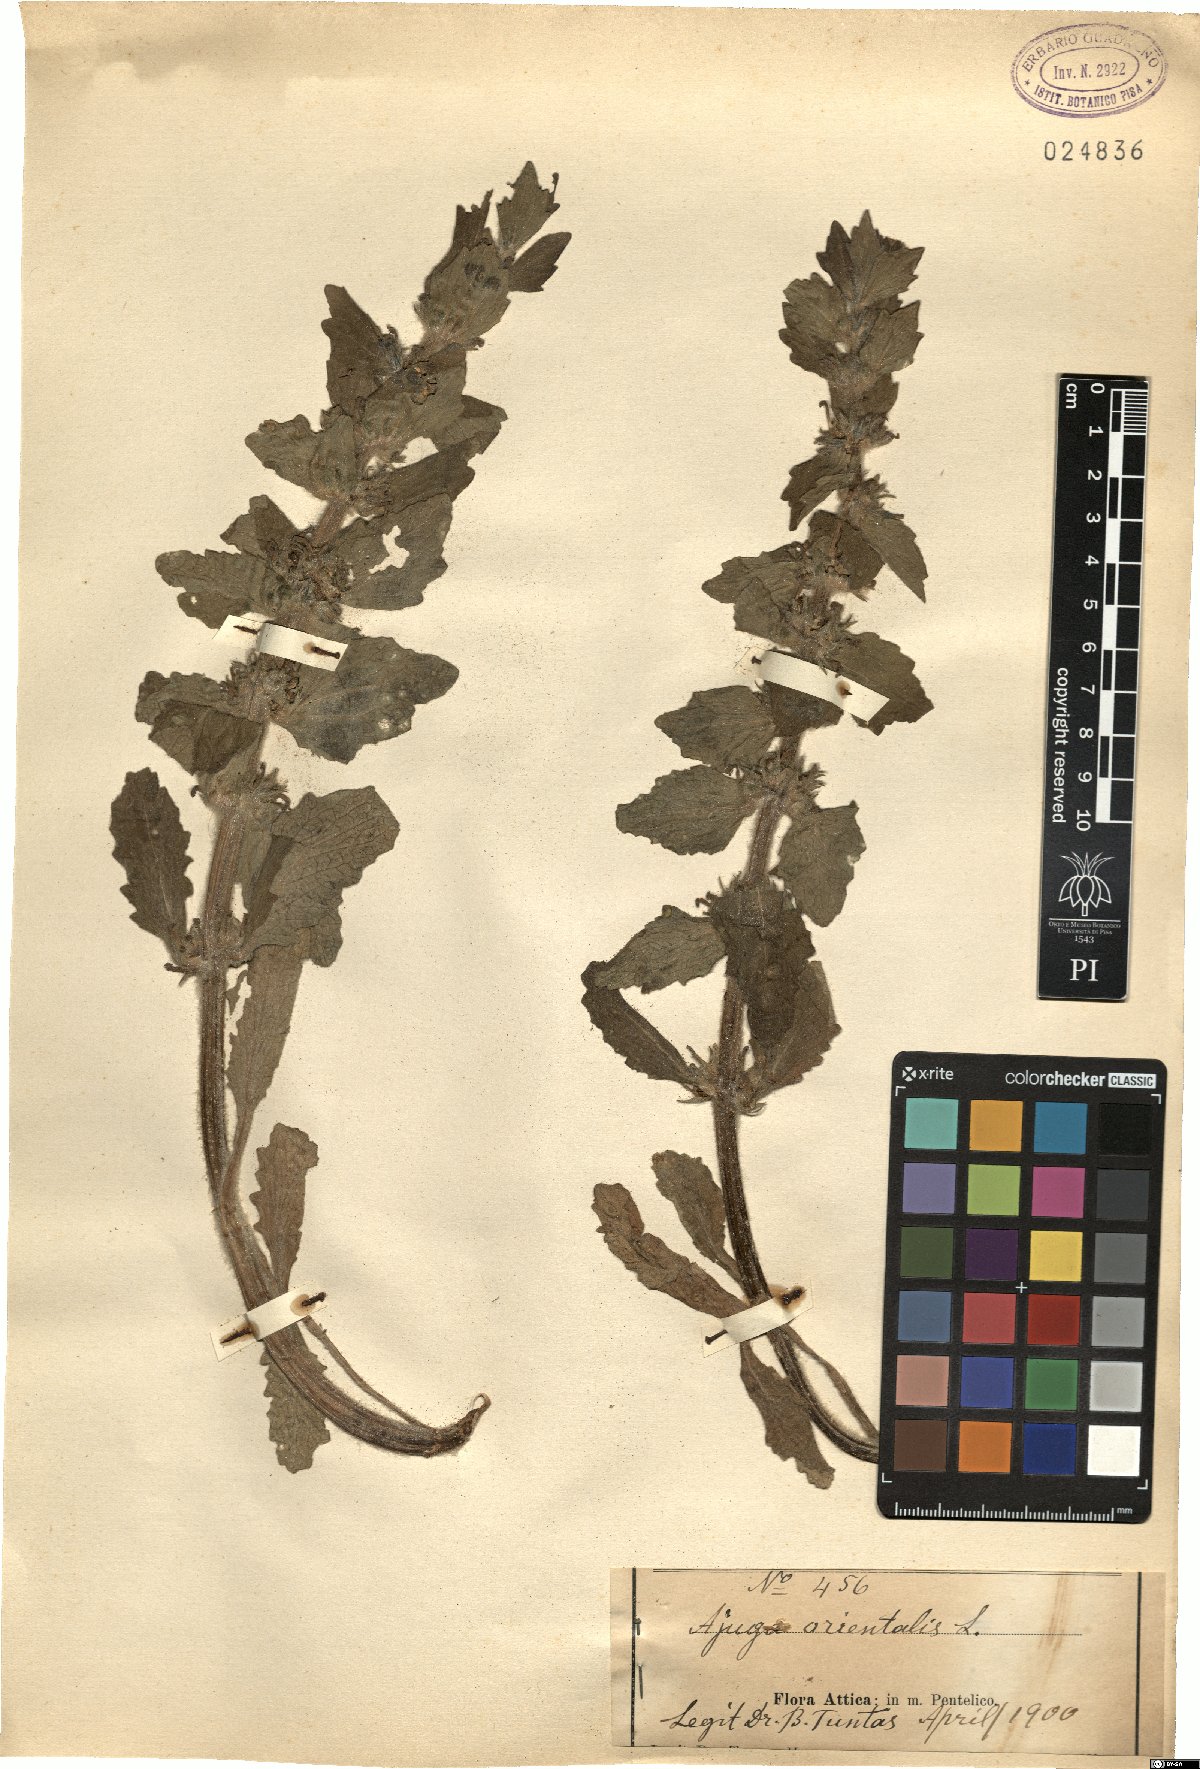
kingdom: Plantae
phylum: Tracheophyta
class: Magnoliopsida
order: Lamiales
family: Lamiaceae
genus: Ajuga
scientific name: Ajuga orientalis
